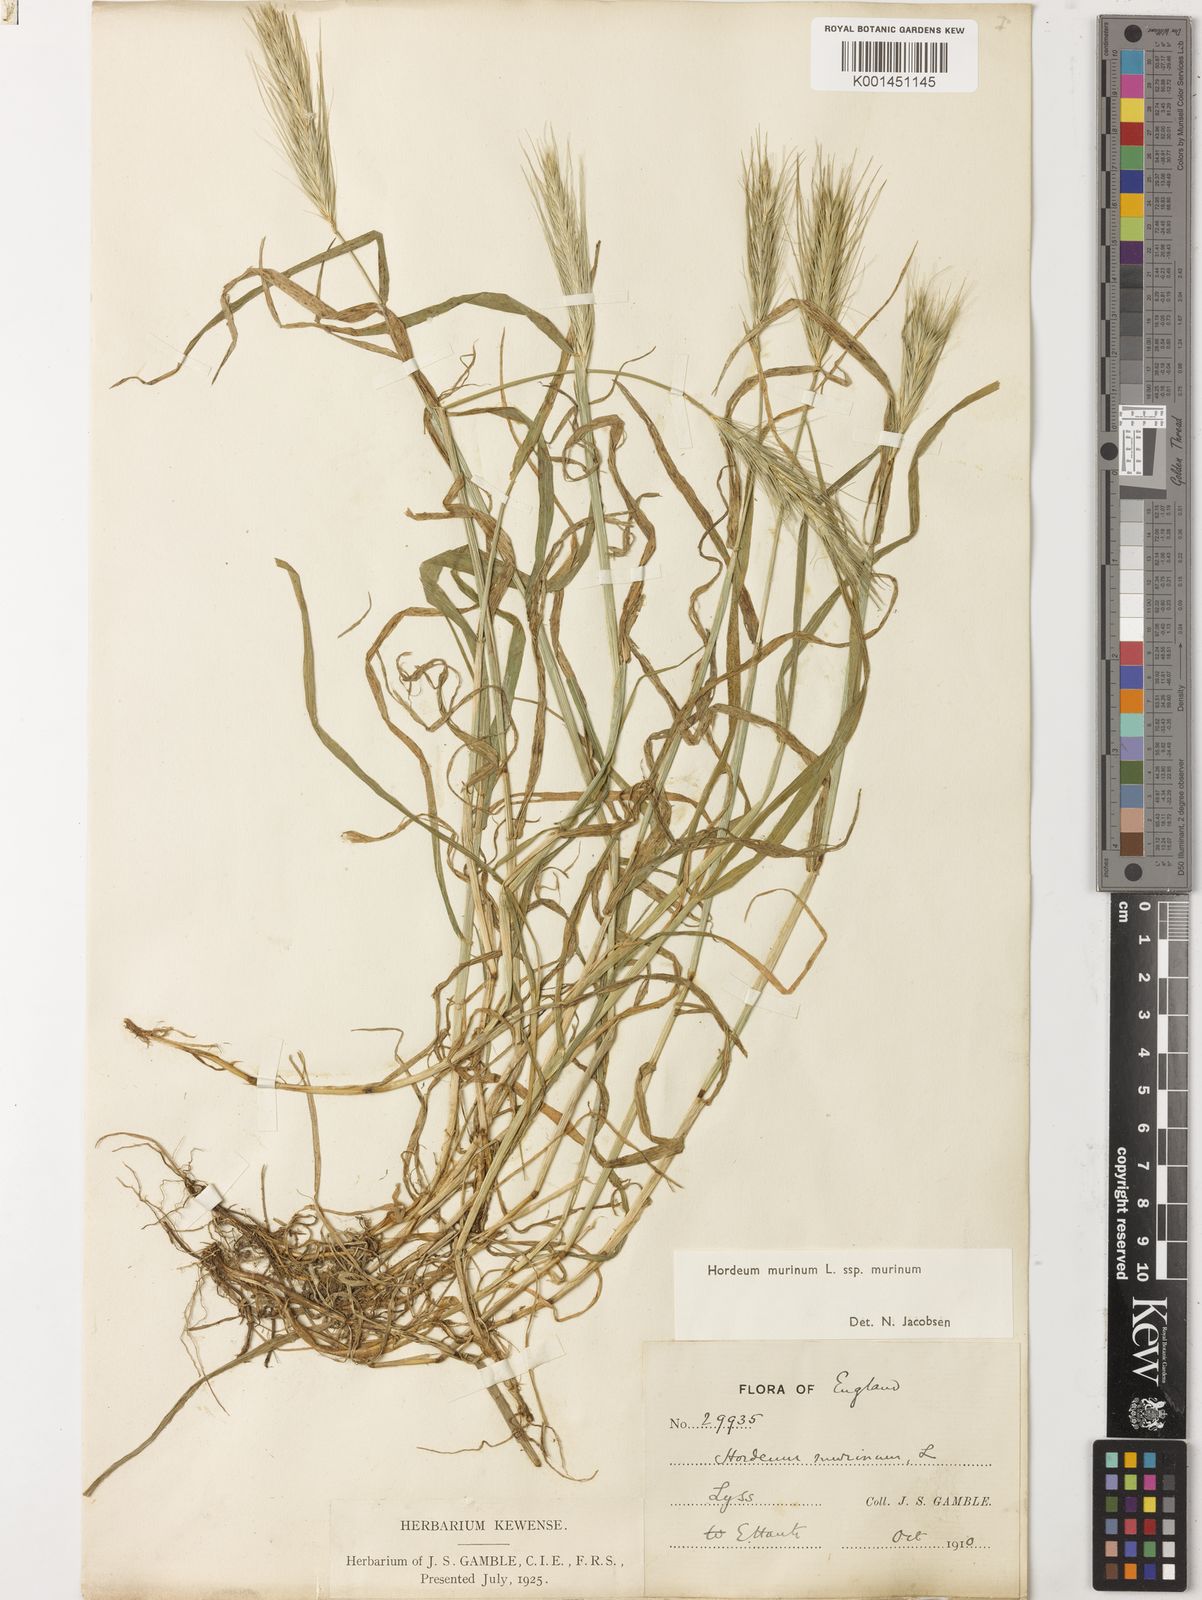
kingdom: Plantae
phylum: Tracheophyta
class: Liliopsida
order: Poales
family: Poaceae
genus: Hordeum
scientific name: Hordeum murinum
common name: Wall barley
